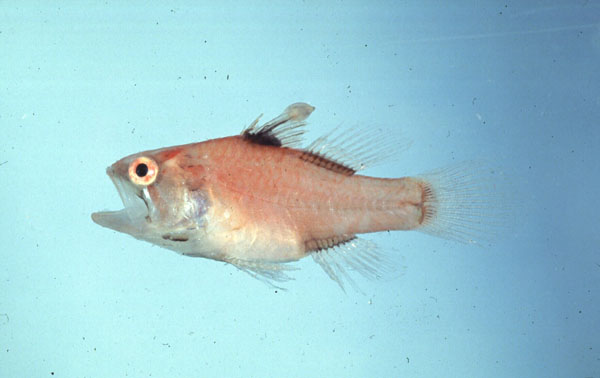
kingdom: Animalia
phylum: Chordata
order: Perciformes
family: Apogonidae
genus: Neamia
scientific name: Neamia octospina
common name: Eightspine cardinalfish
